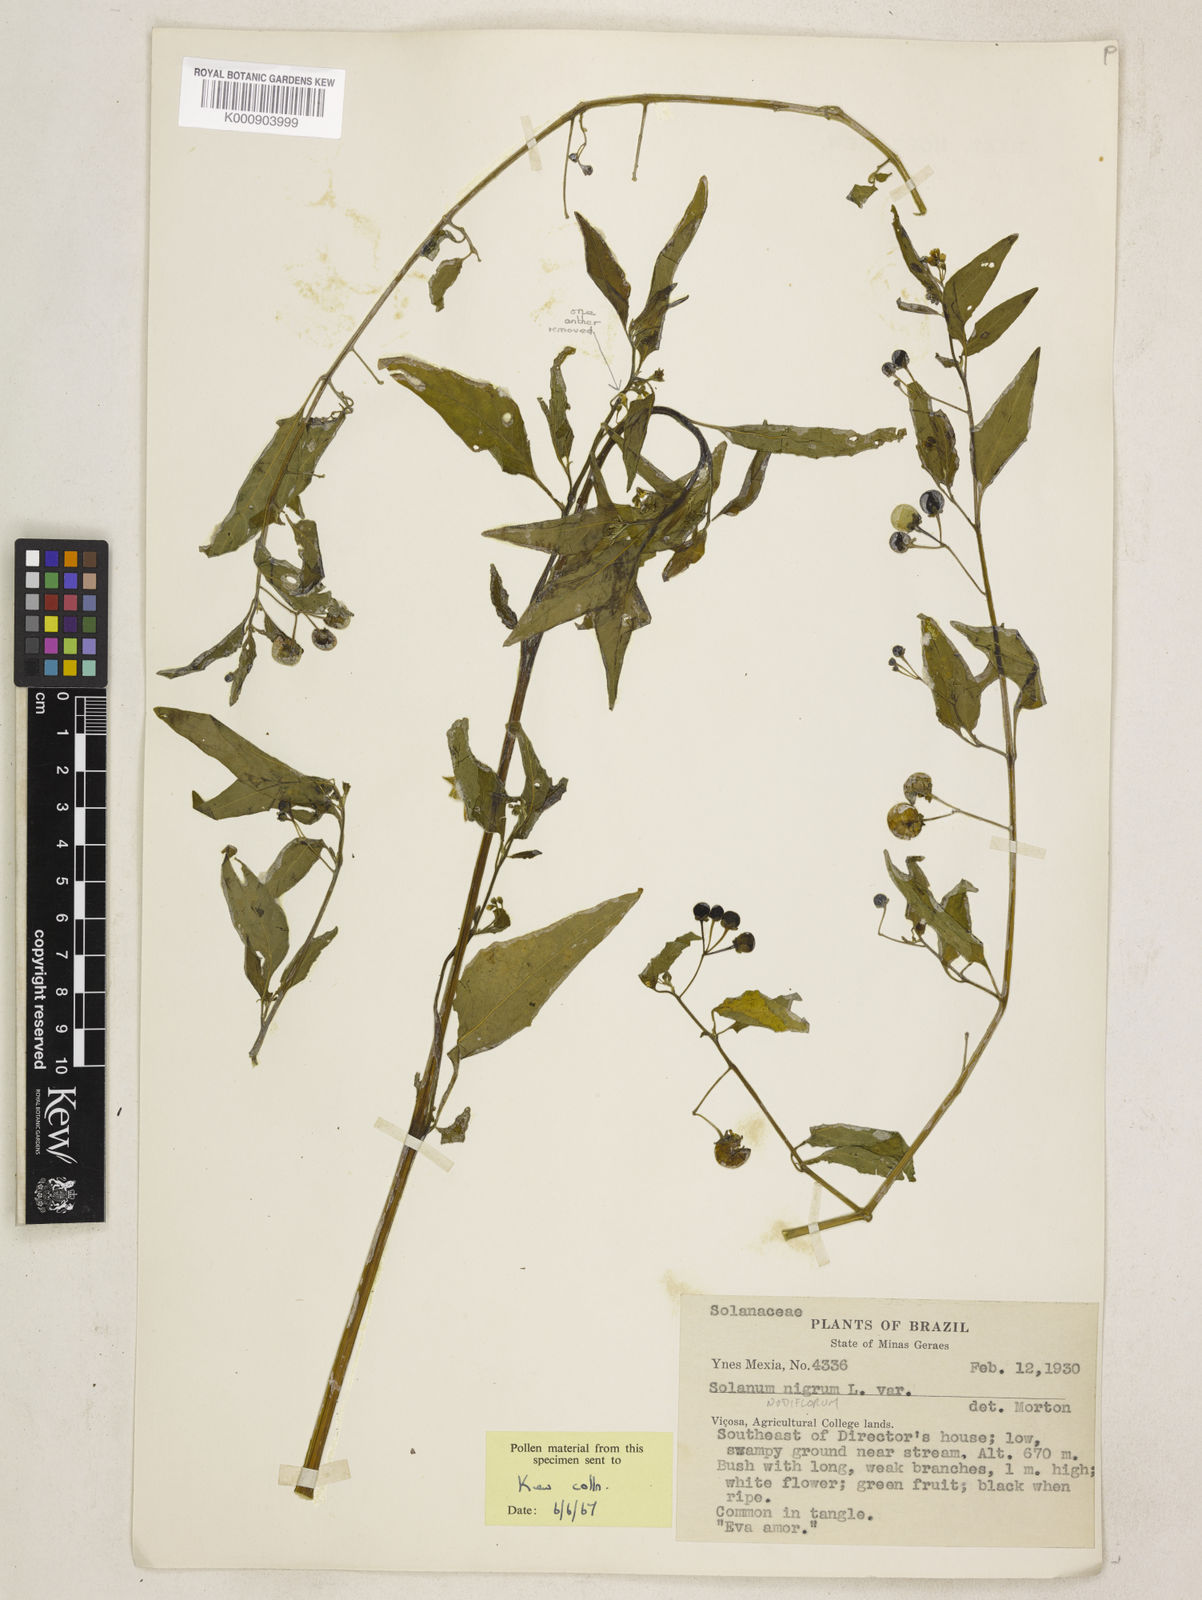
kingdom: Plantae
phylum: Tracheophyta
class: Magnoliopsida
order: Solanales
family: Solanaceae
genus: Solanum
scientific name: Solanum americanum
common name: American black nightshade
